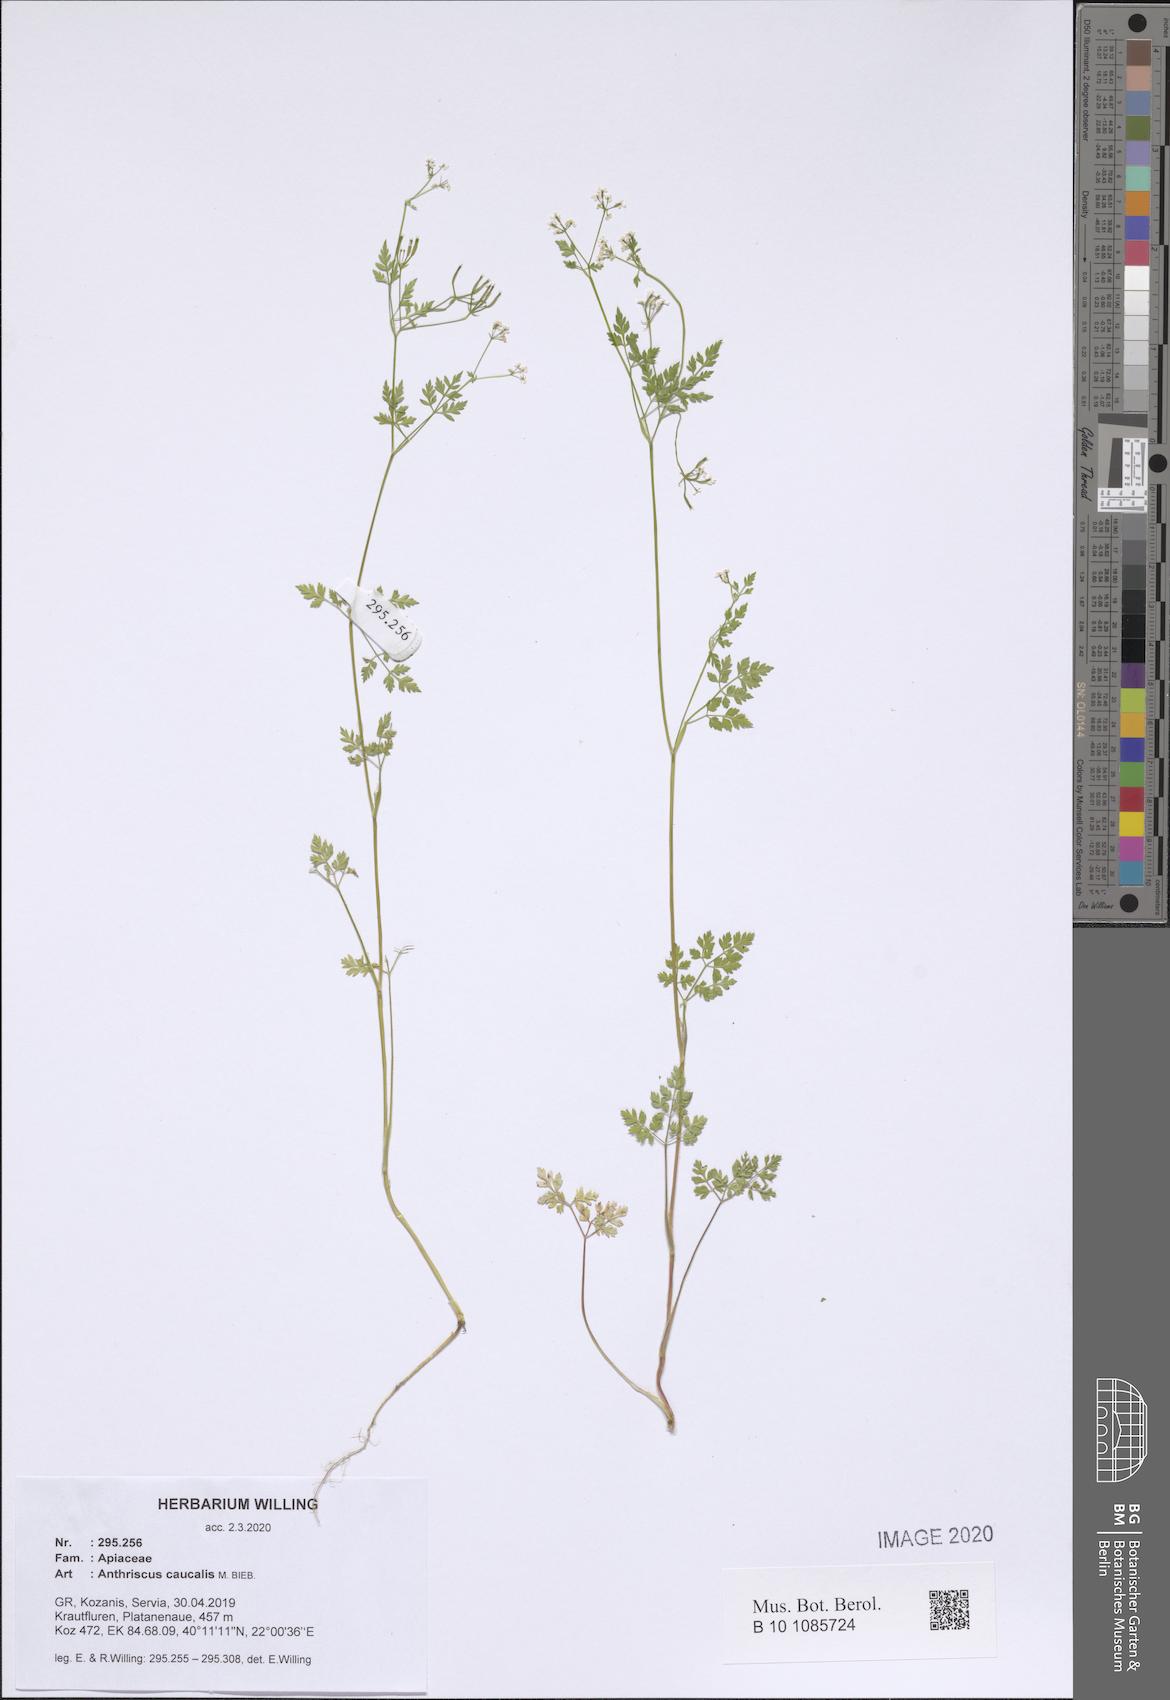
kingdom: Plantae
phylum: Tracheophyta
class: Magnoliopsida
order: Apiales
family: Apiaceae
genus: Anthriscus
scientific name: Anthriscus caucalis
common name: Bur chervil
